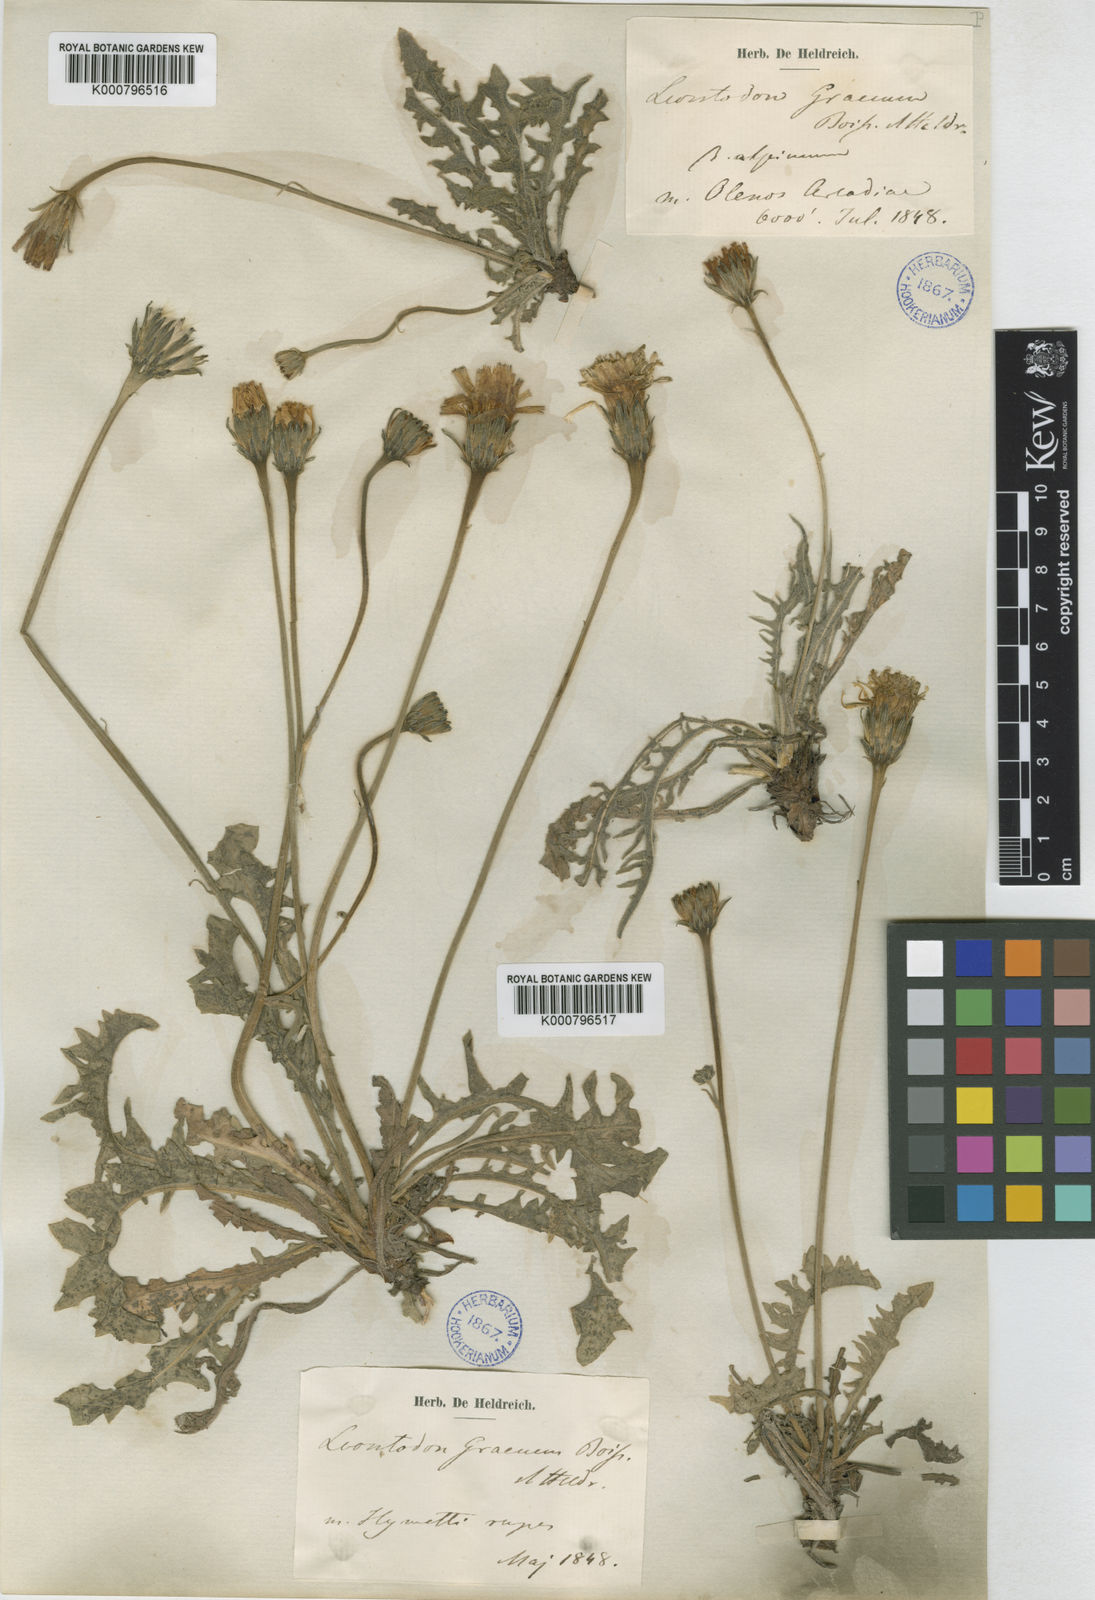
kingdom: Plantae
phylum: Tracheophyta
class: Magnoliopsida
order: Asterales
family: Asteraceae
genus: Leontodon
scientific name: Leontodon crispus
